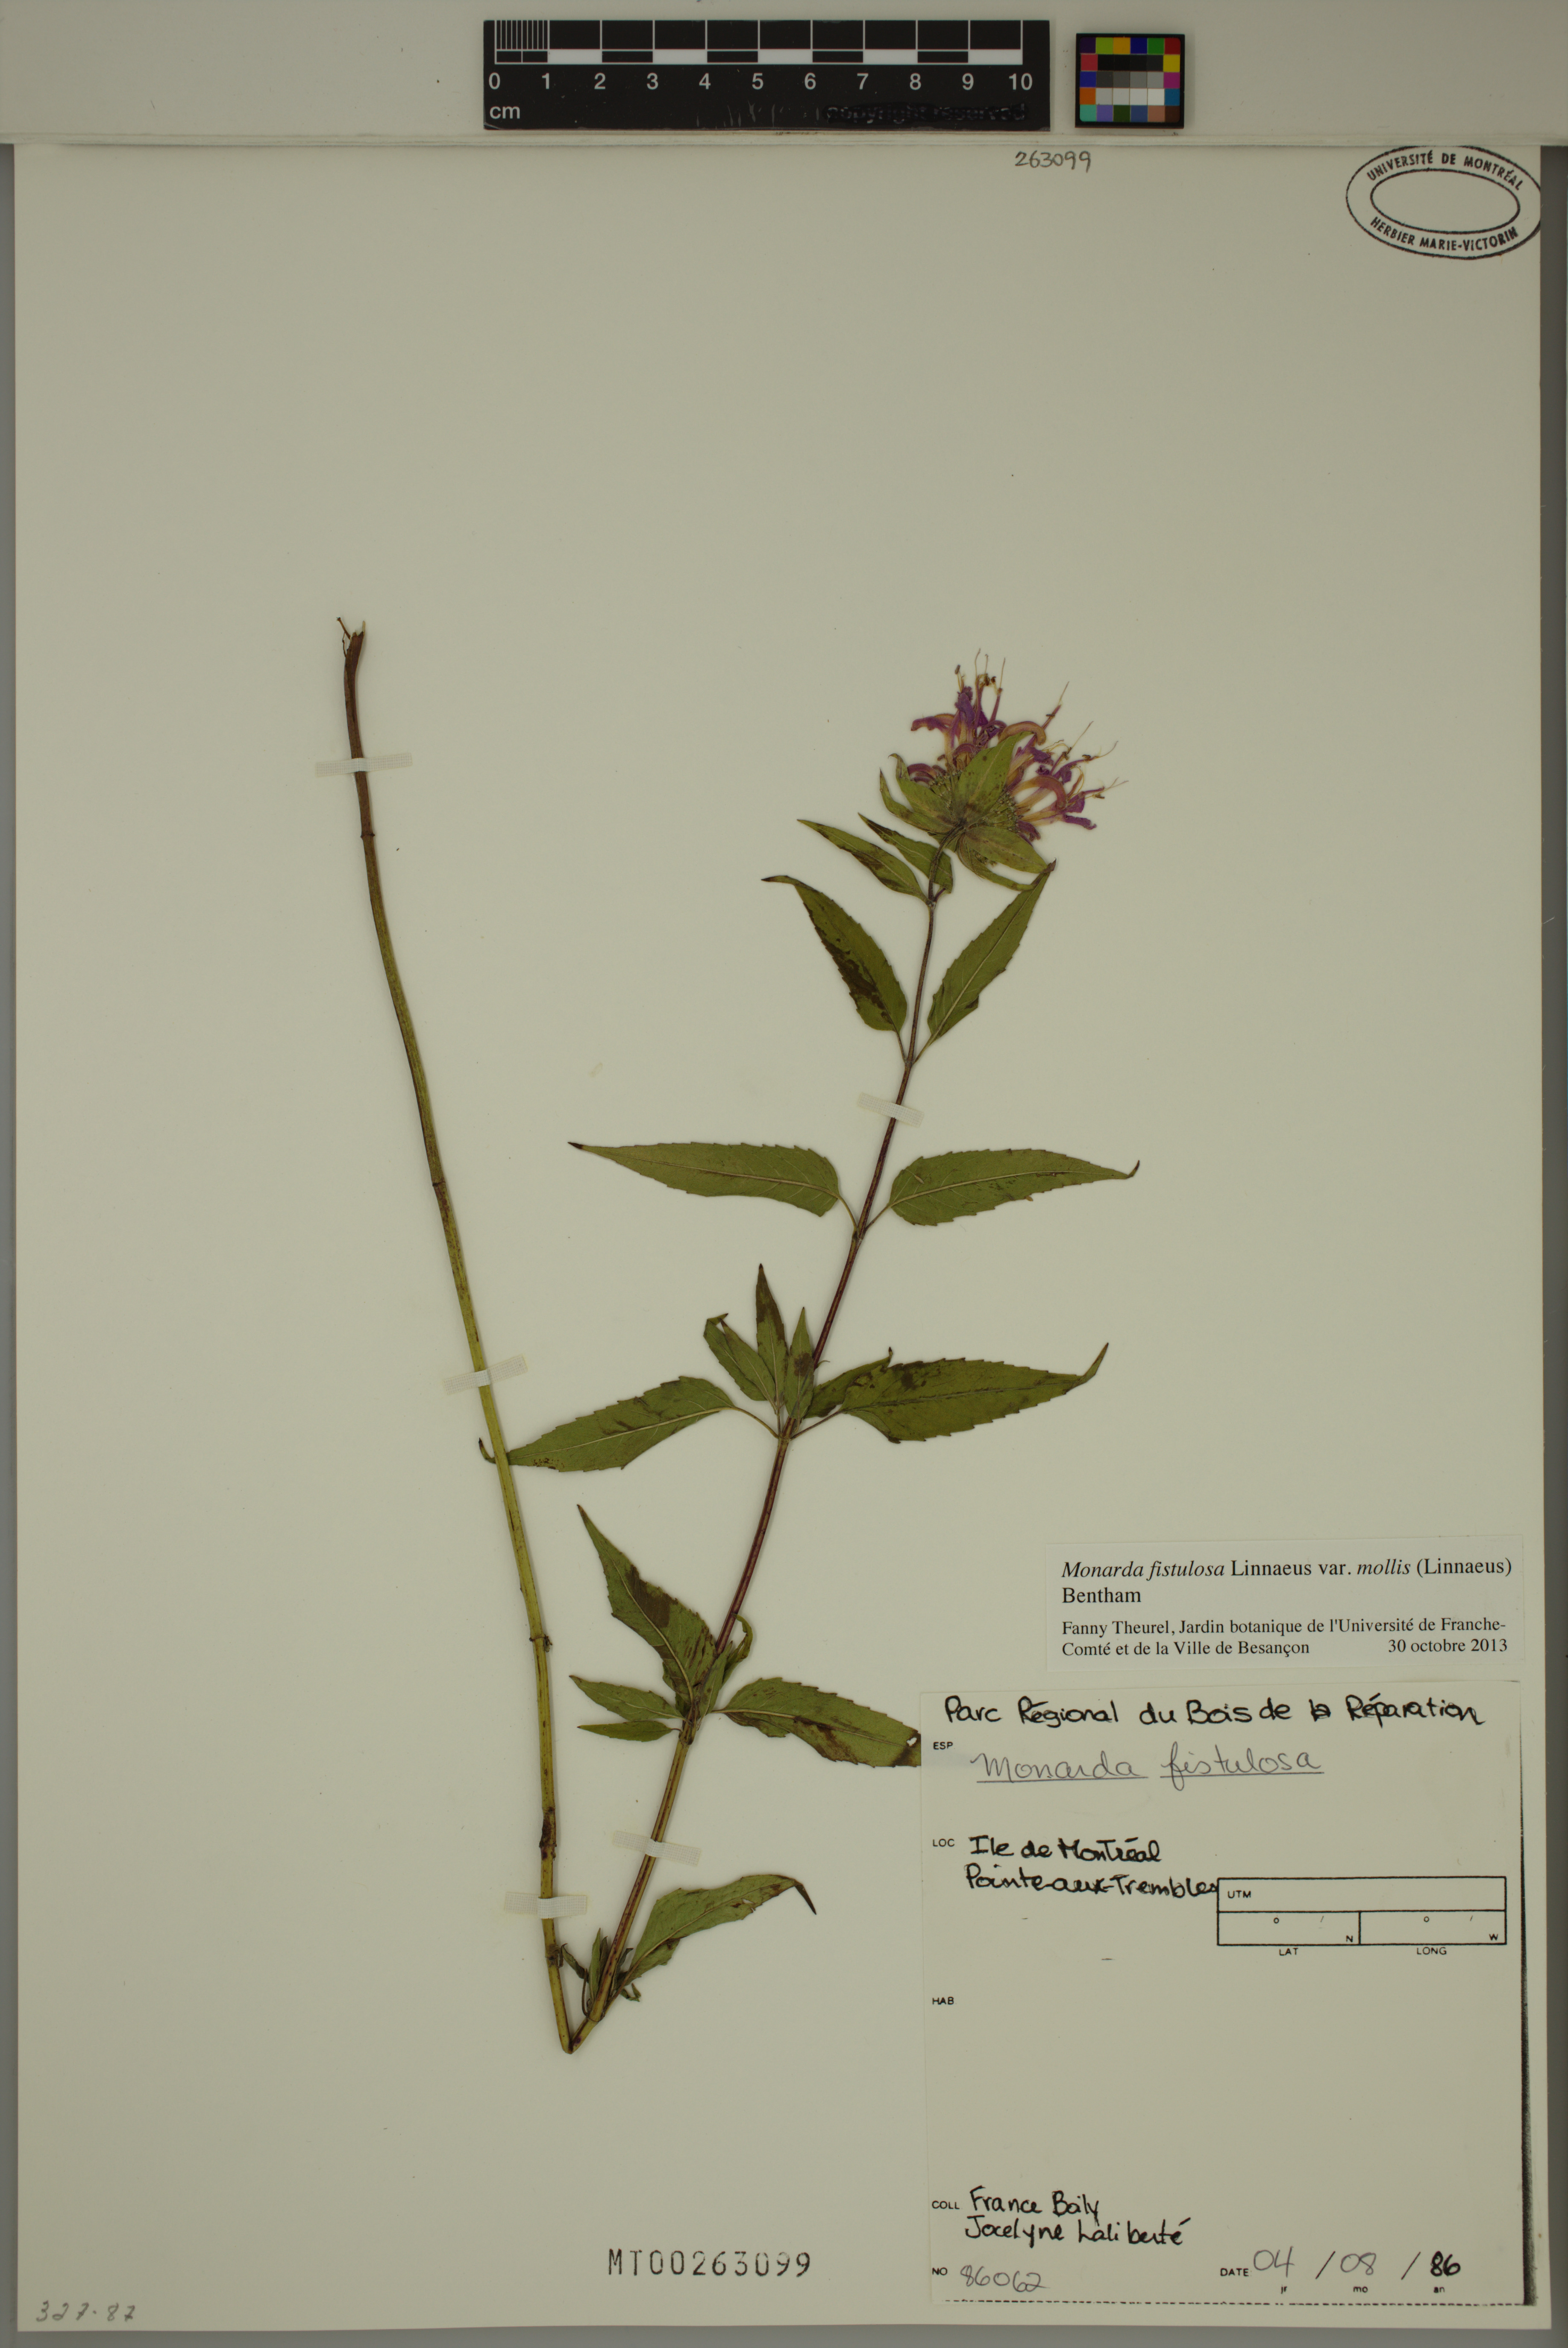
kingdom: Plantae
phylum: Tracheophyta
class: Magnoliopsida
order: Lamiales
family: Lamiaceae
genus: Monarda
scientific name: Monarda fistulosa
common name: Purple beebalm
